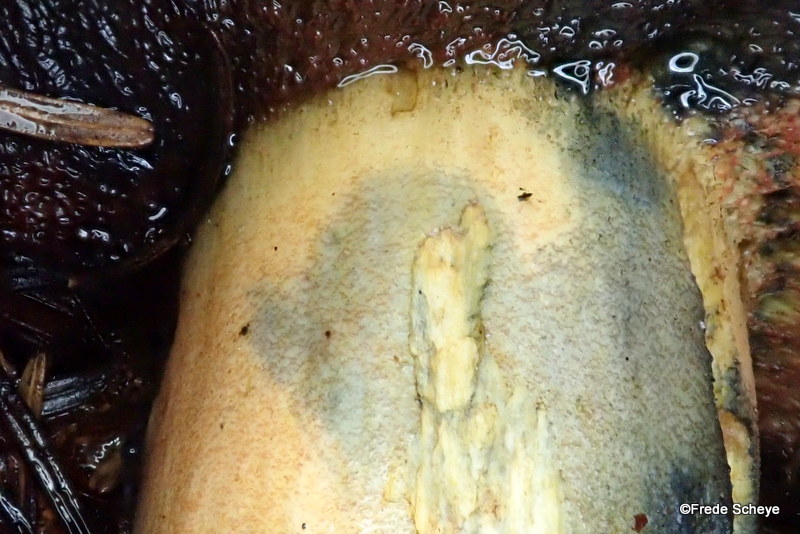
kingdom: Fungi
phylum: Basidiomycota
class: Agaricomycetes
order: Boletales
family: Boletaceae
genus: Neoboletus
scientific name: Neoboletus erythropus
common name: punktstokket indigorørhat
